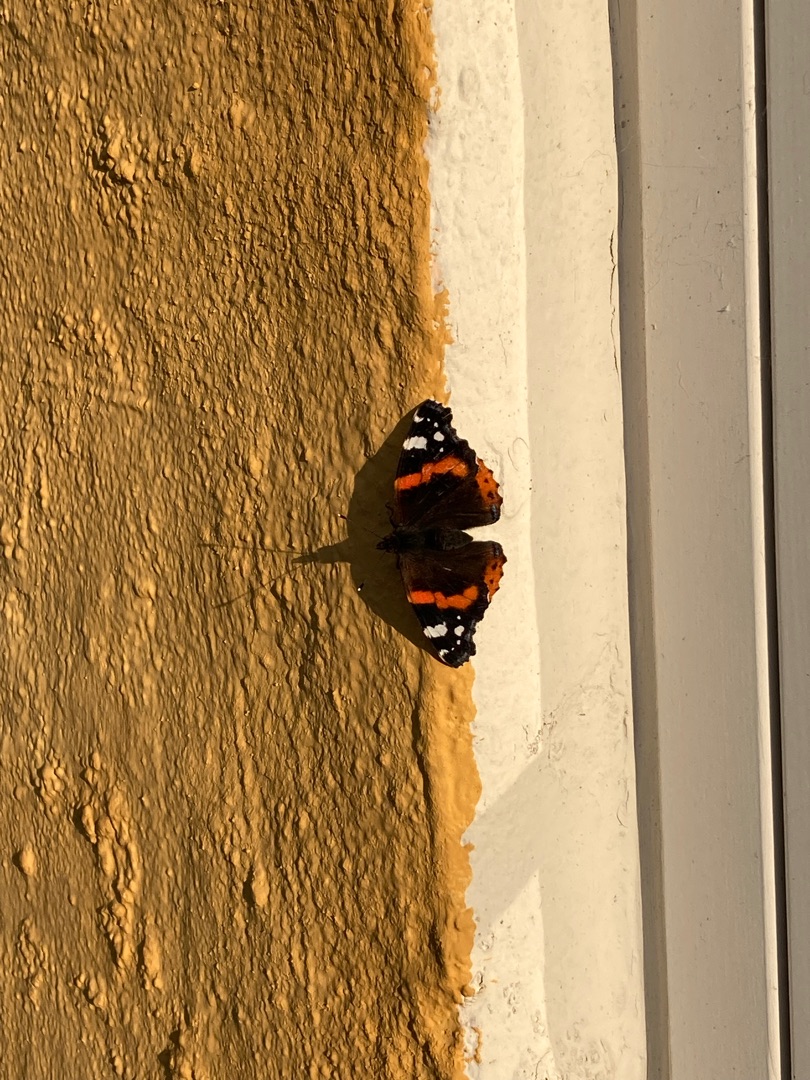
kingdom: Animalia
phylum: Arthropoda
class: Insecta
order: Lepidoptera
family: Nymphalidae
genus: Vanessa
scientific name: Vanessa atalanta
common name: Admiral
